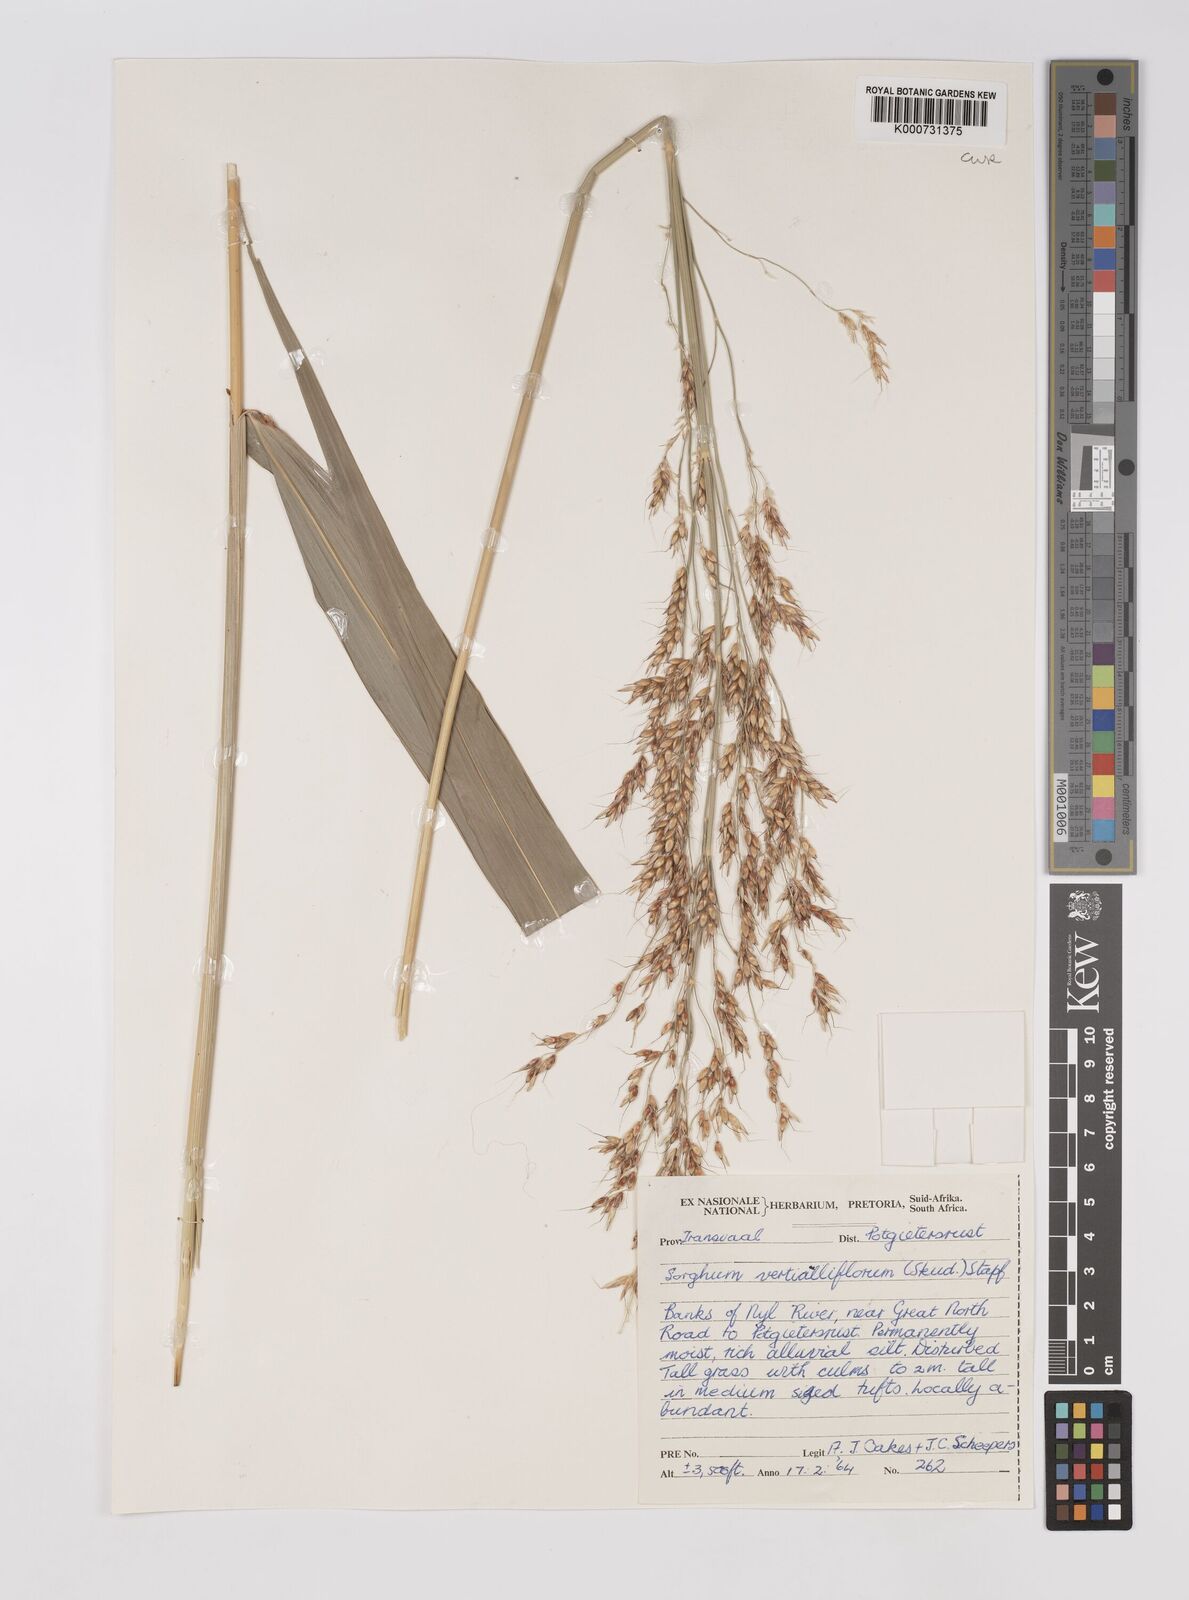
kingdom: Plantae
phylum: Tracheophyta
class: Liliopsida
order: Poales
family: Poaceae
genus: Sorghum
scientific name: Sorghum arundinaceum
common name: Sorghum
